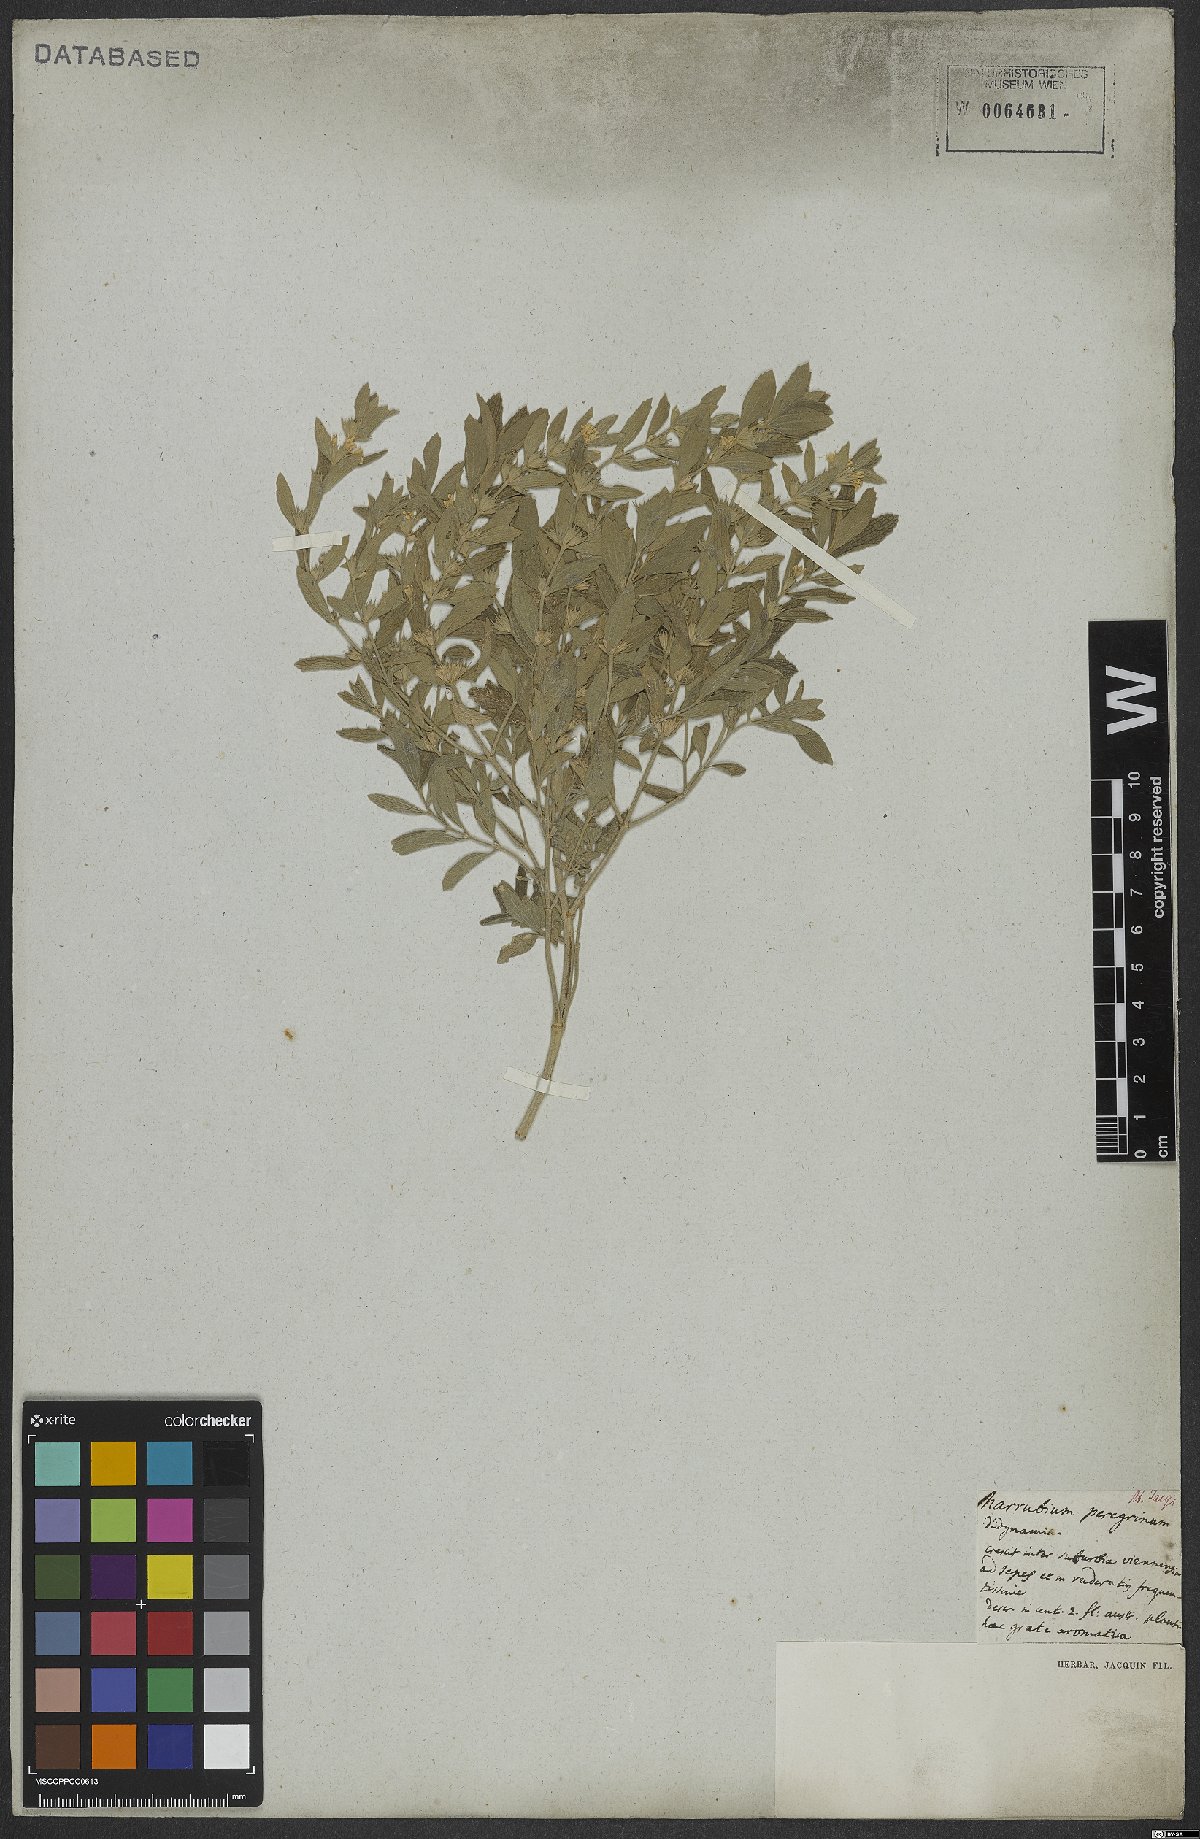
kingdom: Plantae
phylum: Tracheophyta
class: Magnoliopsida
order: Lamiales
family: Lamiaceae
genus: Marrubium
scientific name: Marrubium peregrinum
